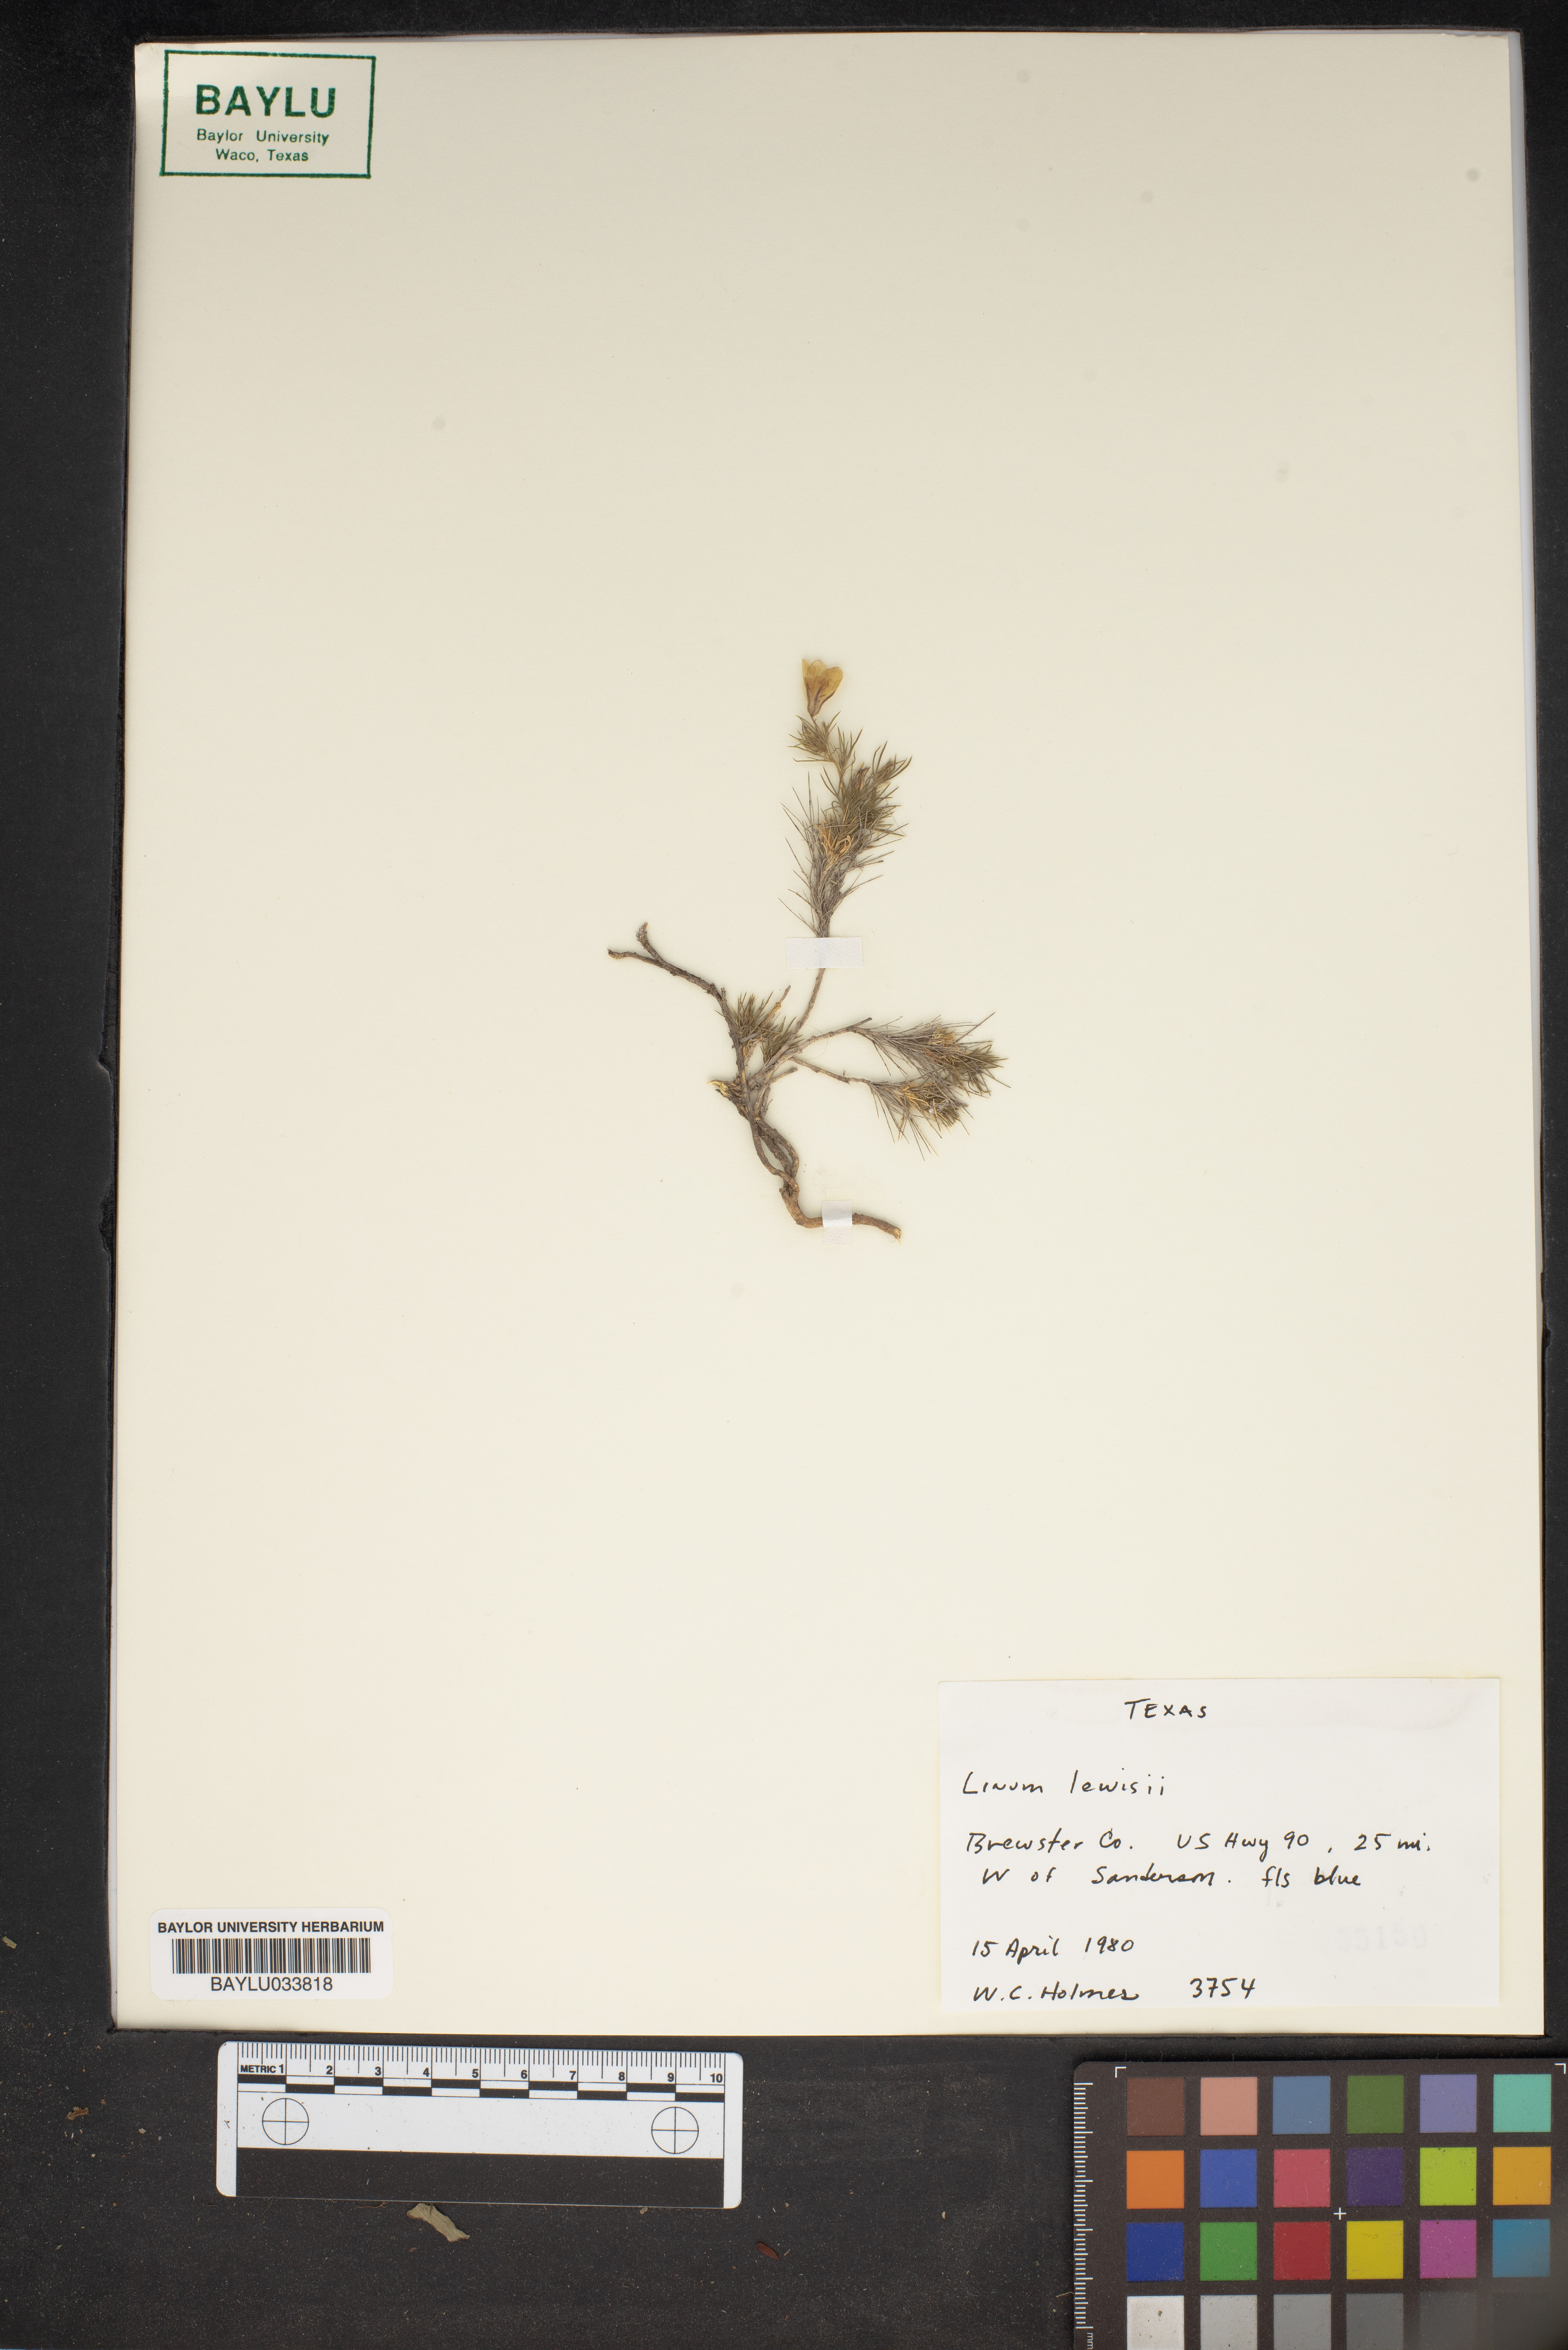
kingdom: Plantae
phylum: Tracheophyta
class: Magnoliopsida
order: Malpighiales
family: Linaceae
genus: Linum
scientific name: Linum lewisii
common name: Prairie flax
